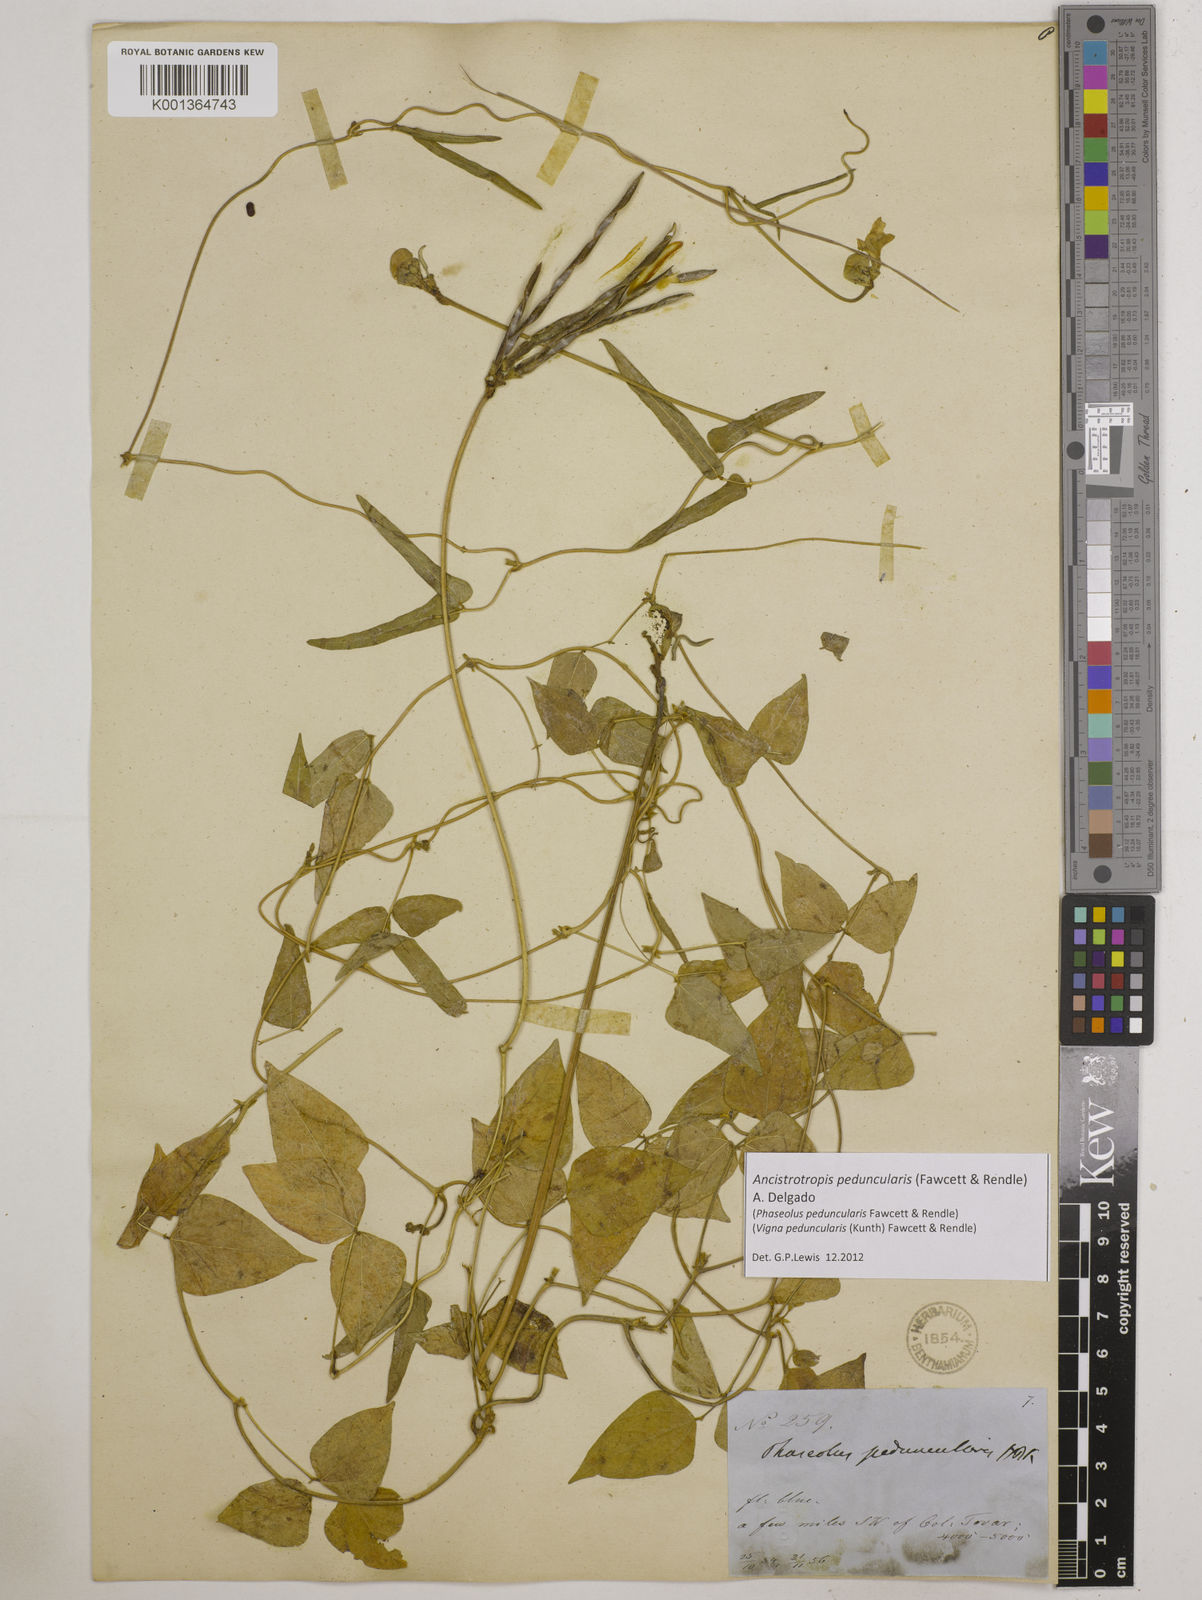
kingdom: Plantae
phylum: Tracheophyta
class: Magnoliopsida
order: Fabales
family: Fabaceae
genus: Ancistrotropis
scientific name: Ancistrotropis peduncularis
